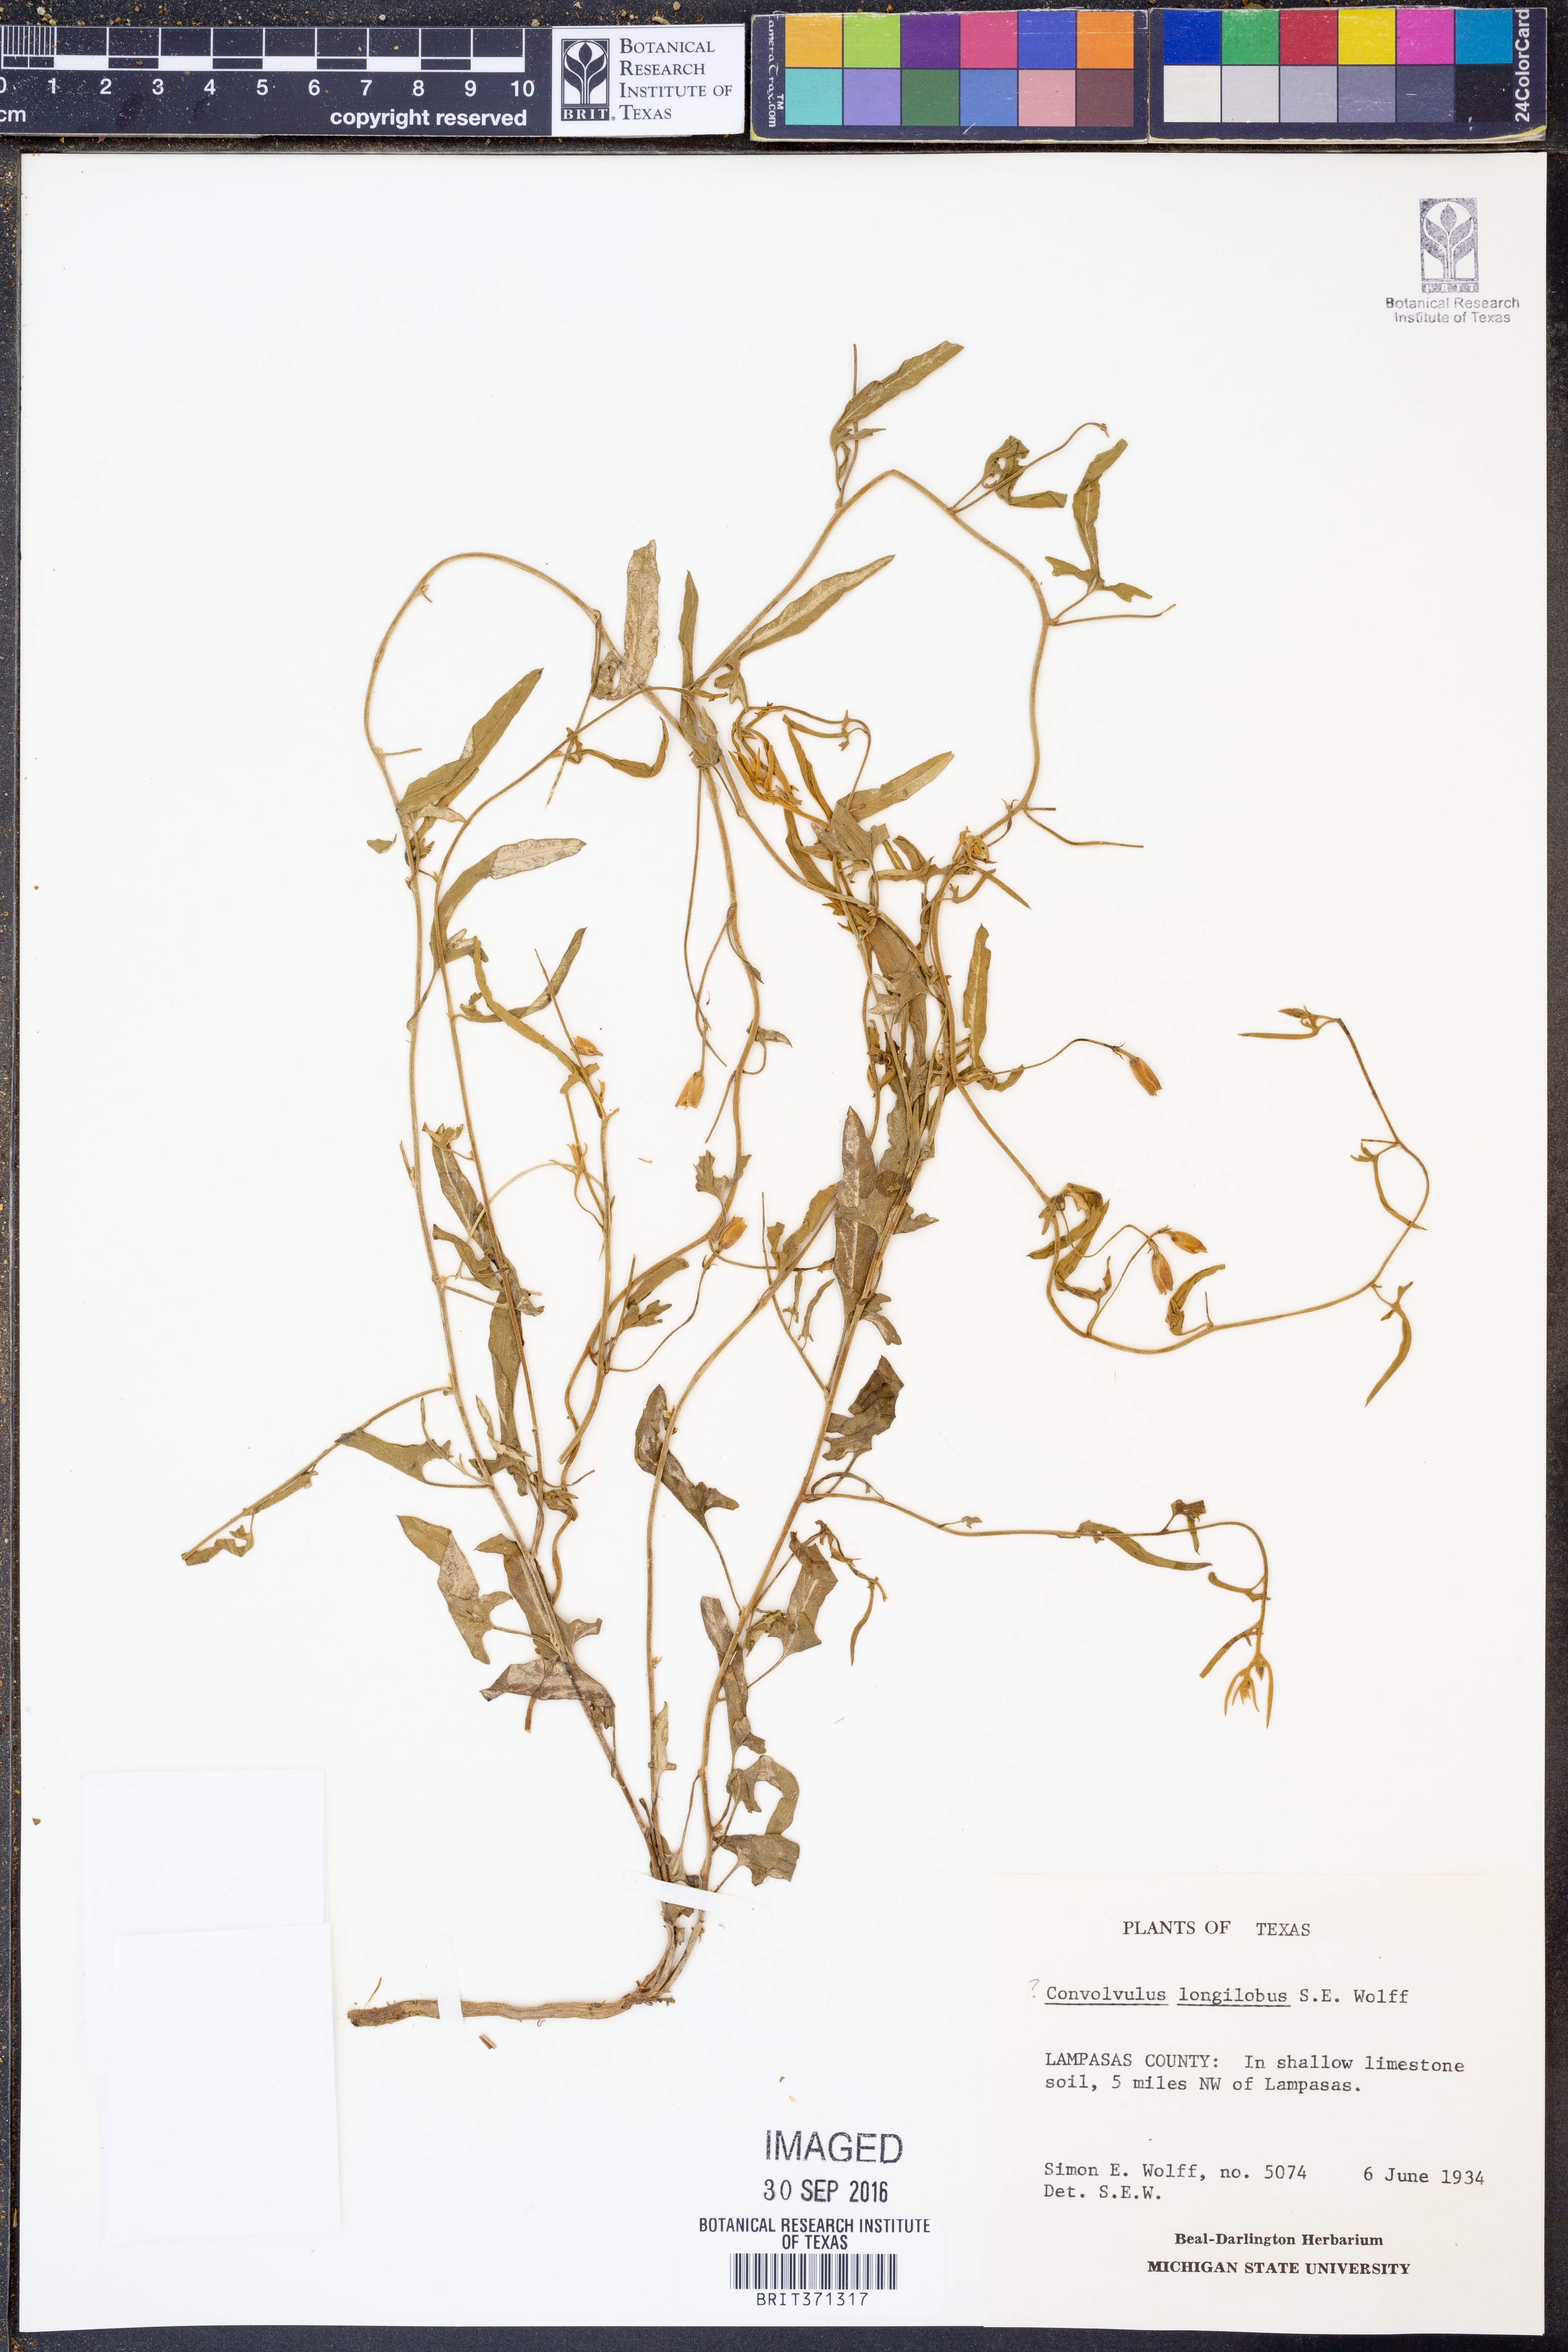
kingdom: Plantae
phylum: Tracheophyta
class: Magnoliopsida
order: Solanales
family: Convolvulaceae
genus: Convolvulus
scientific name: Convolvulus equitans
